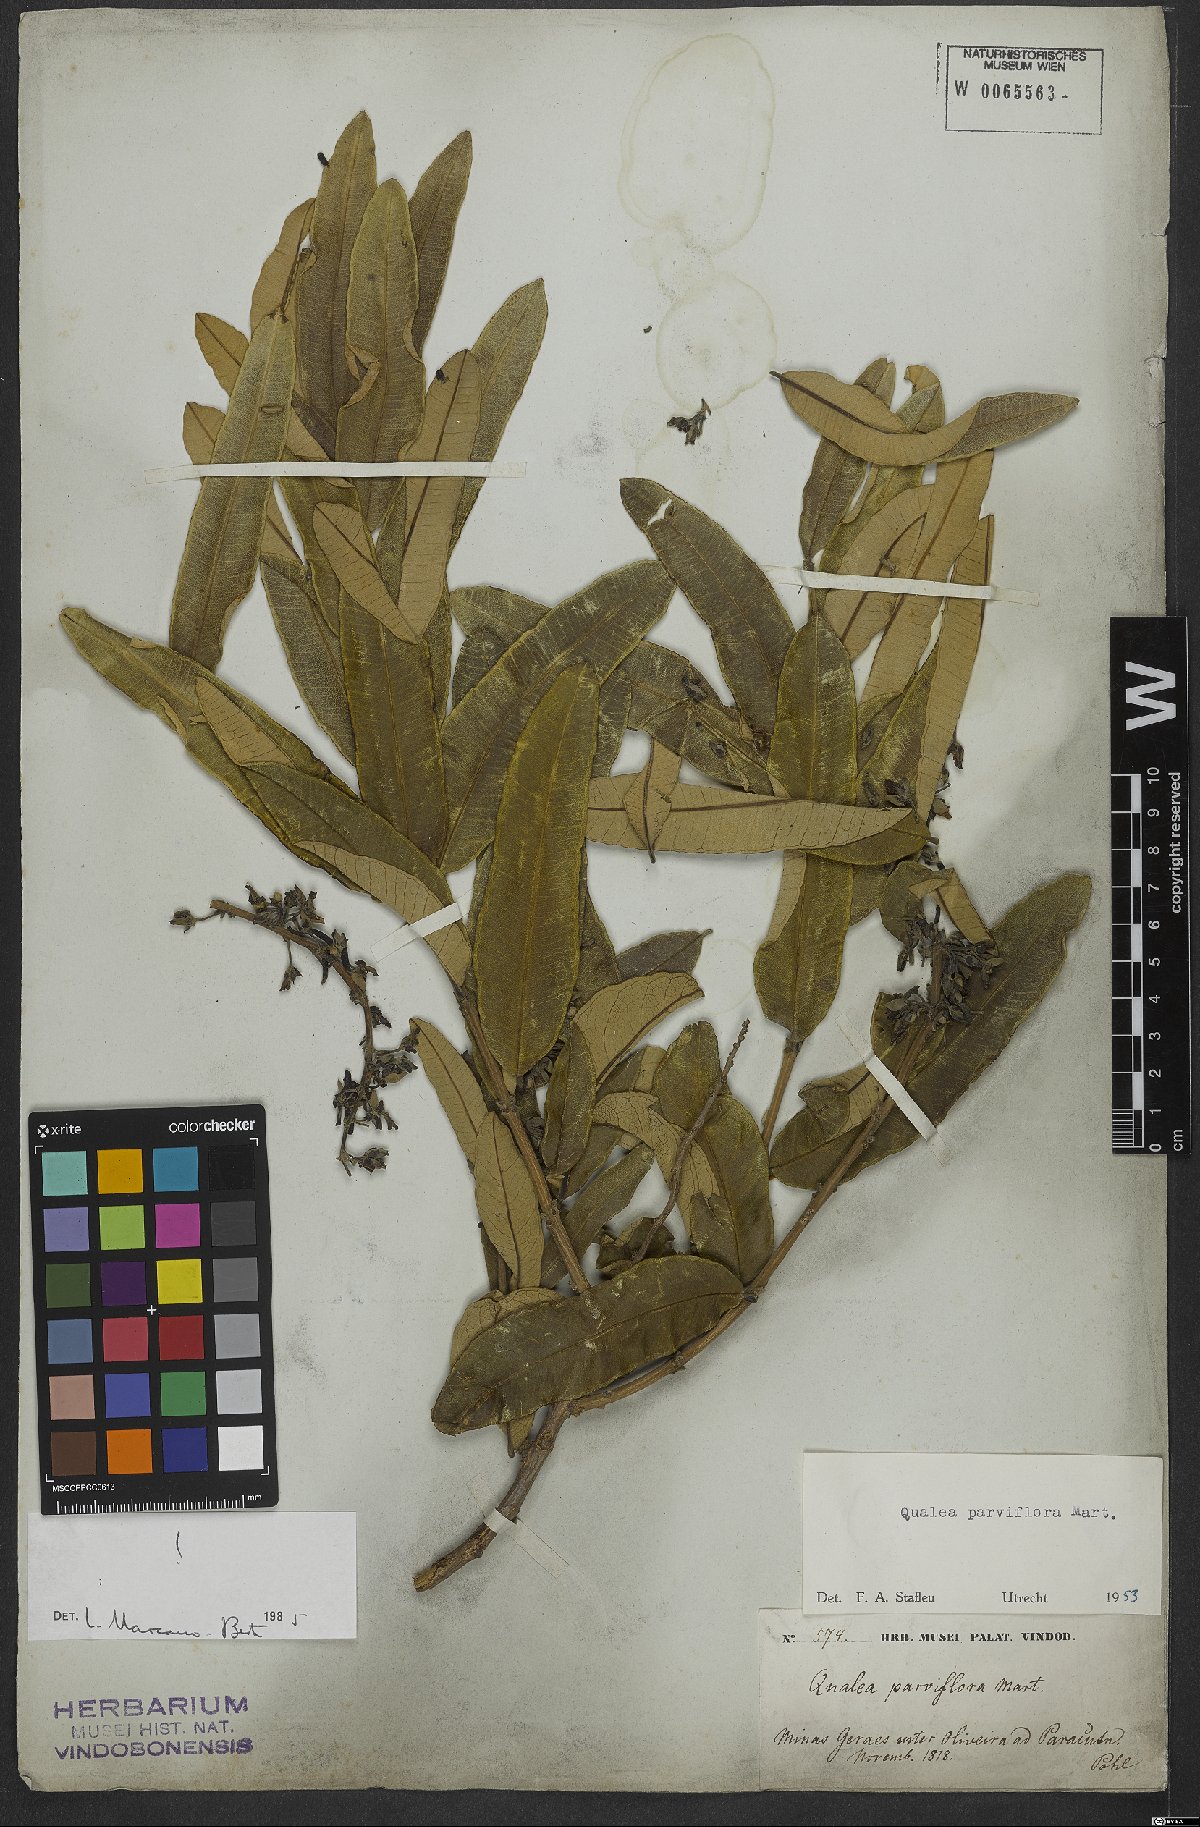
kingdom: Plantae
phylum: Tracheophyta
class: Magnoliopsida
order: Myrtales
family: Vochysiaceae
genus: Qualea
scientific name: Qualea parviflora
